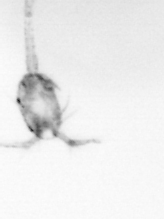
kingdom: Animalia
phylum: Arthropoda
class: Copepoda
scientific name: Copepoda
